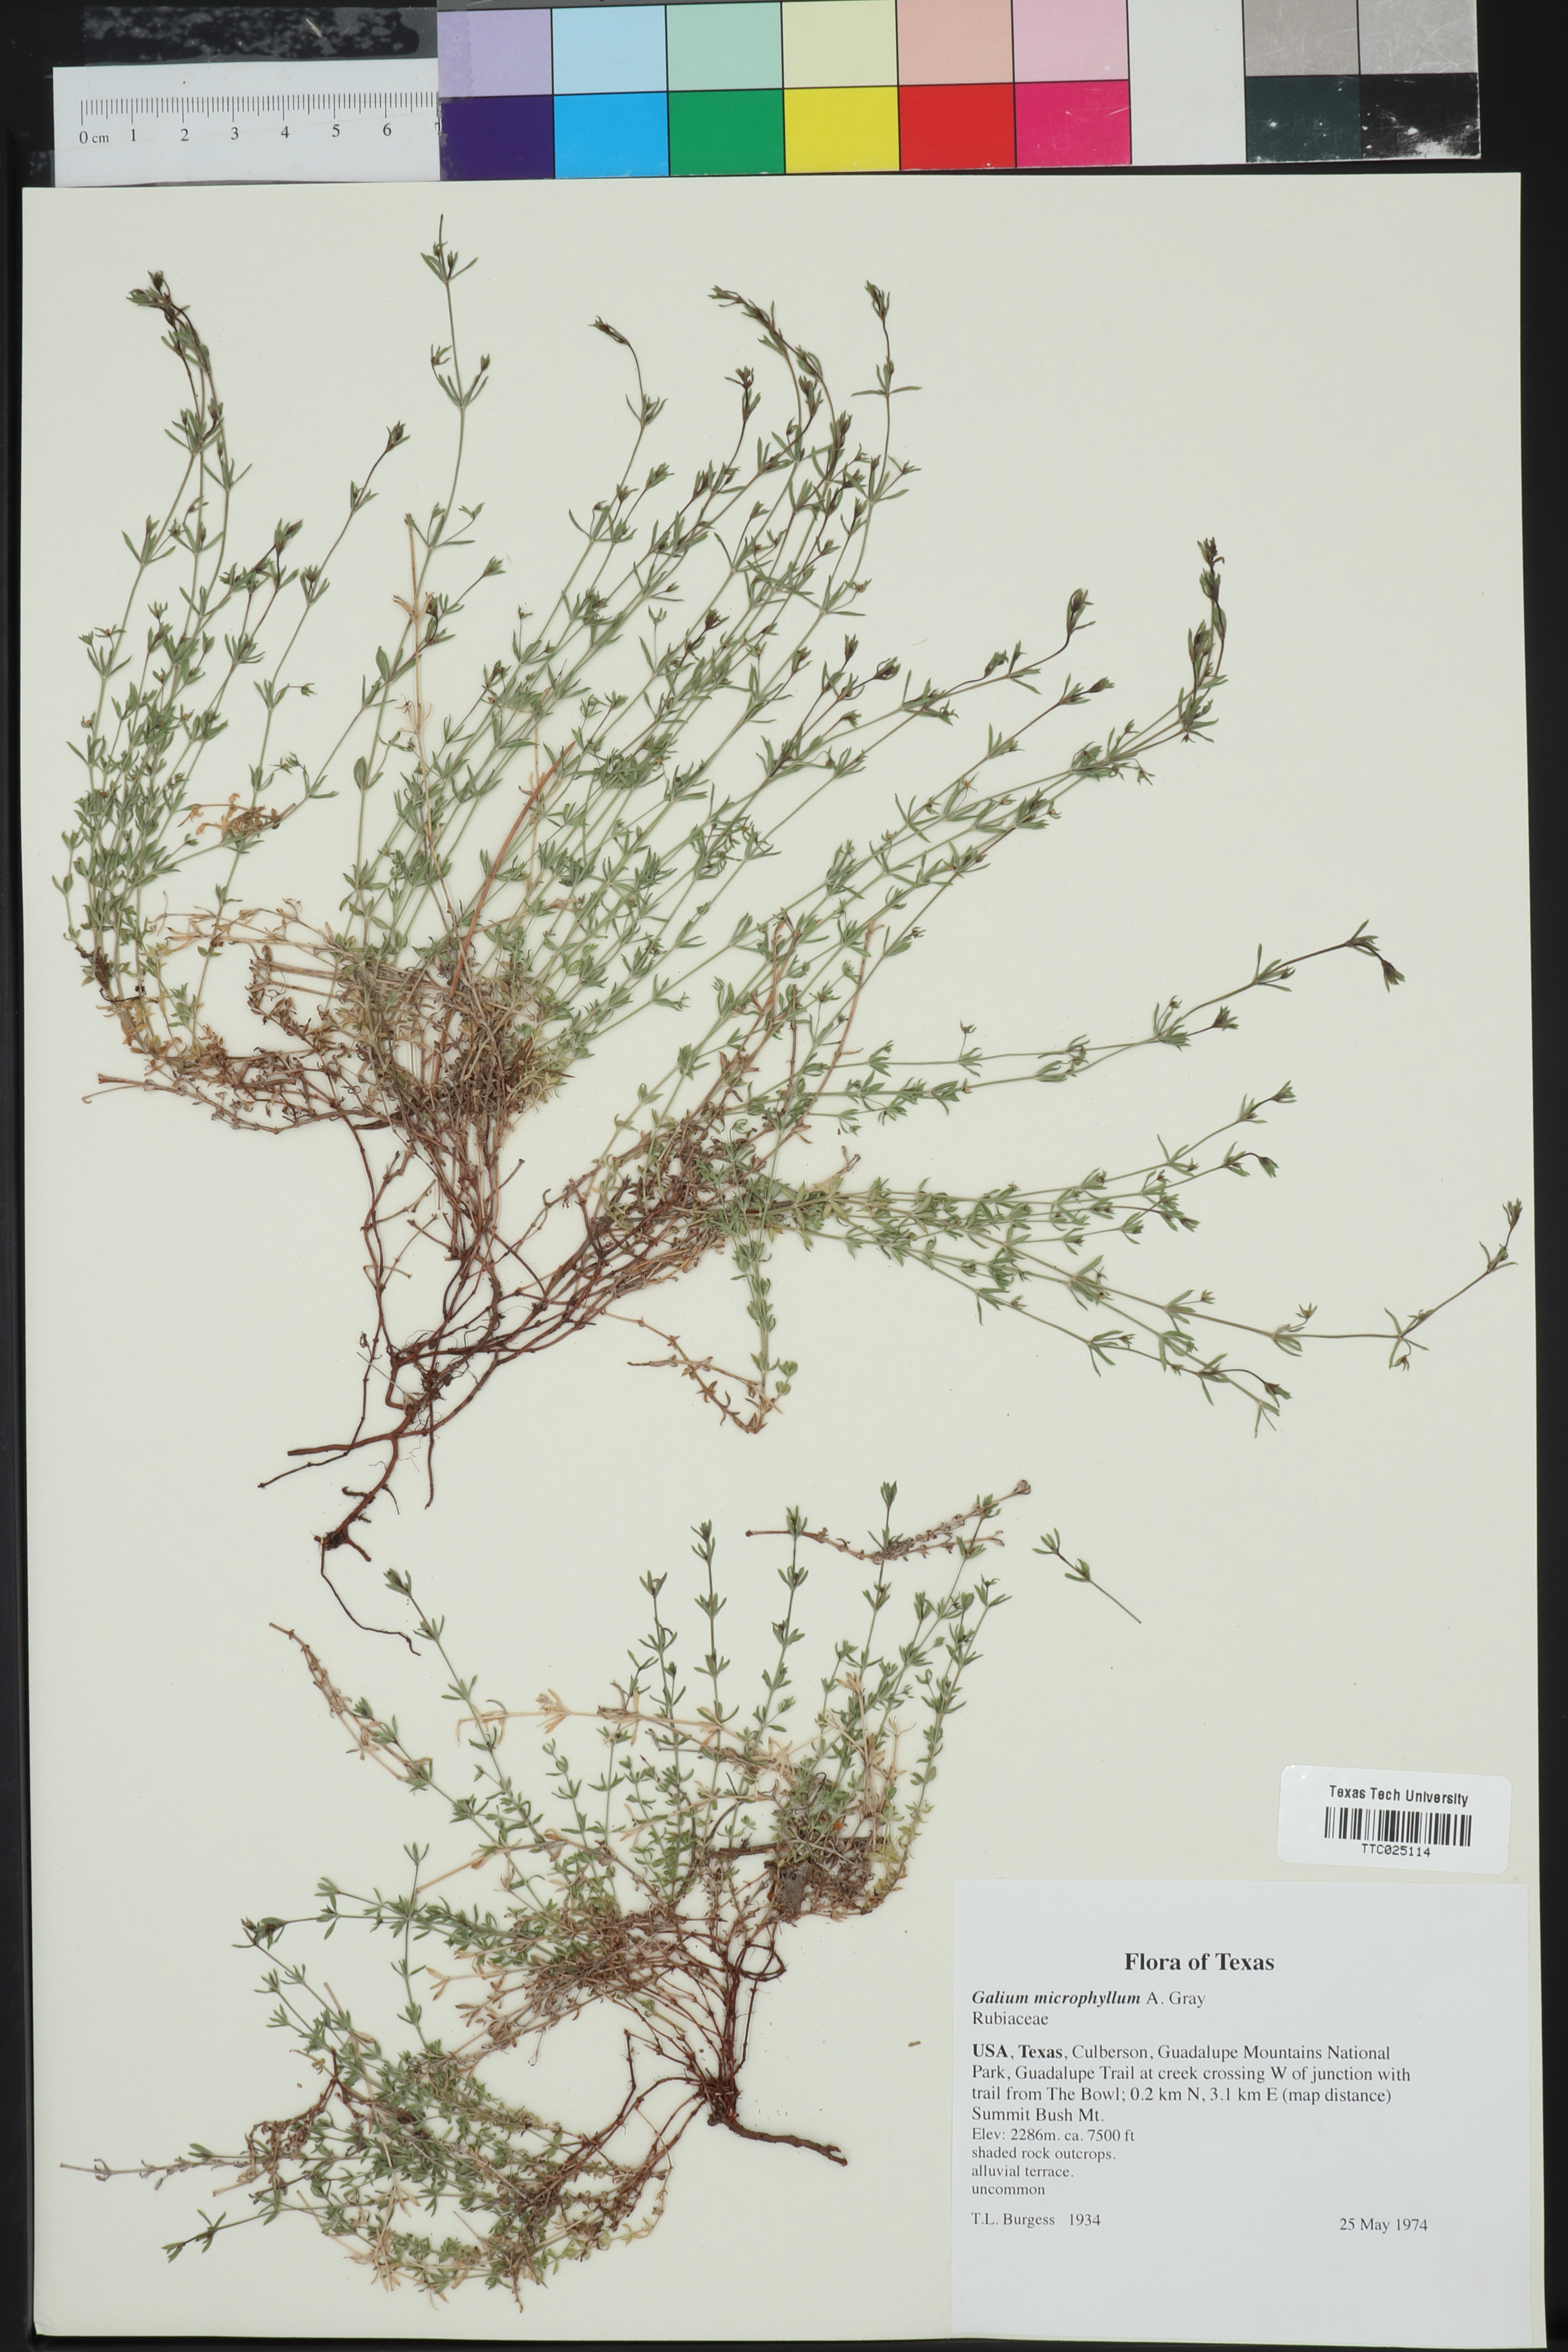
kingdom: Plantae
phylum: Tracheophyta
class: Magnoliopsida
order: Gentianales
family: Rubiaceae
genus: Galium
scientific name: Galium microphyllum
